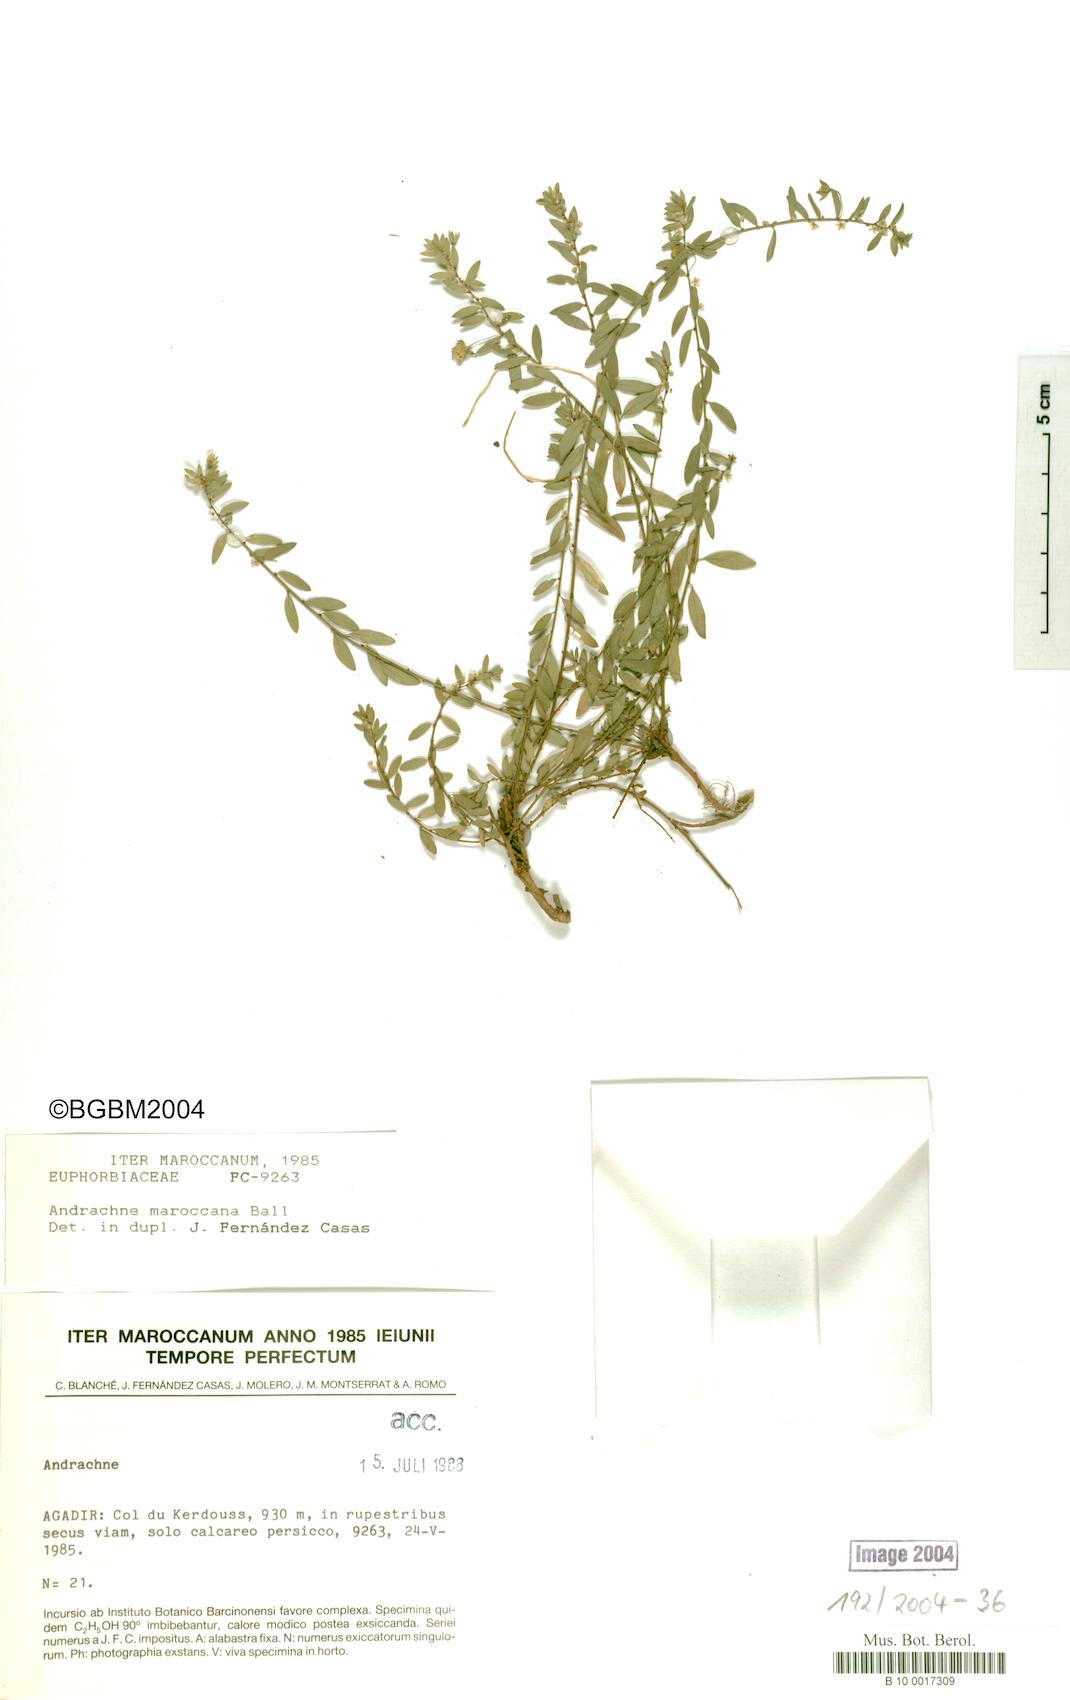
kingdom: Plantae
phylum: Tracheophyta
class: Magnoliopsida
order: Malpighiales
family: Phyllanthaceae
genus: Andrachne
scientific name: Andrachne maroccana
